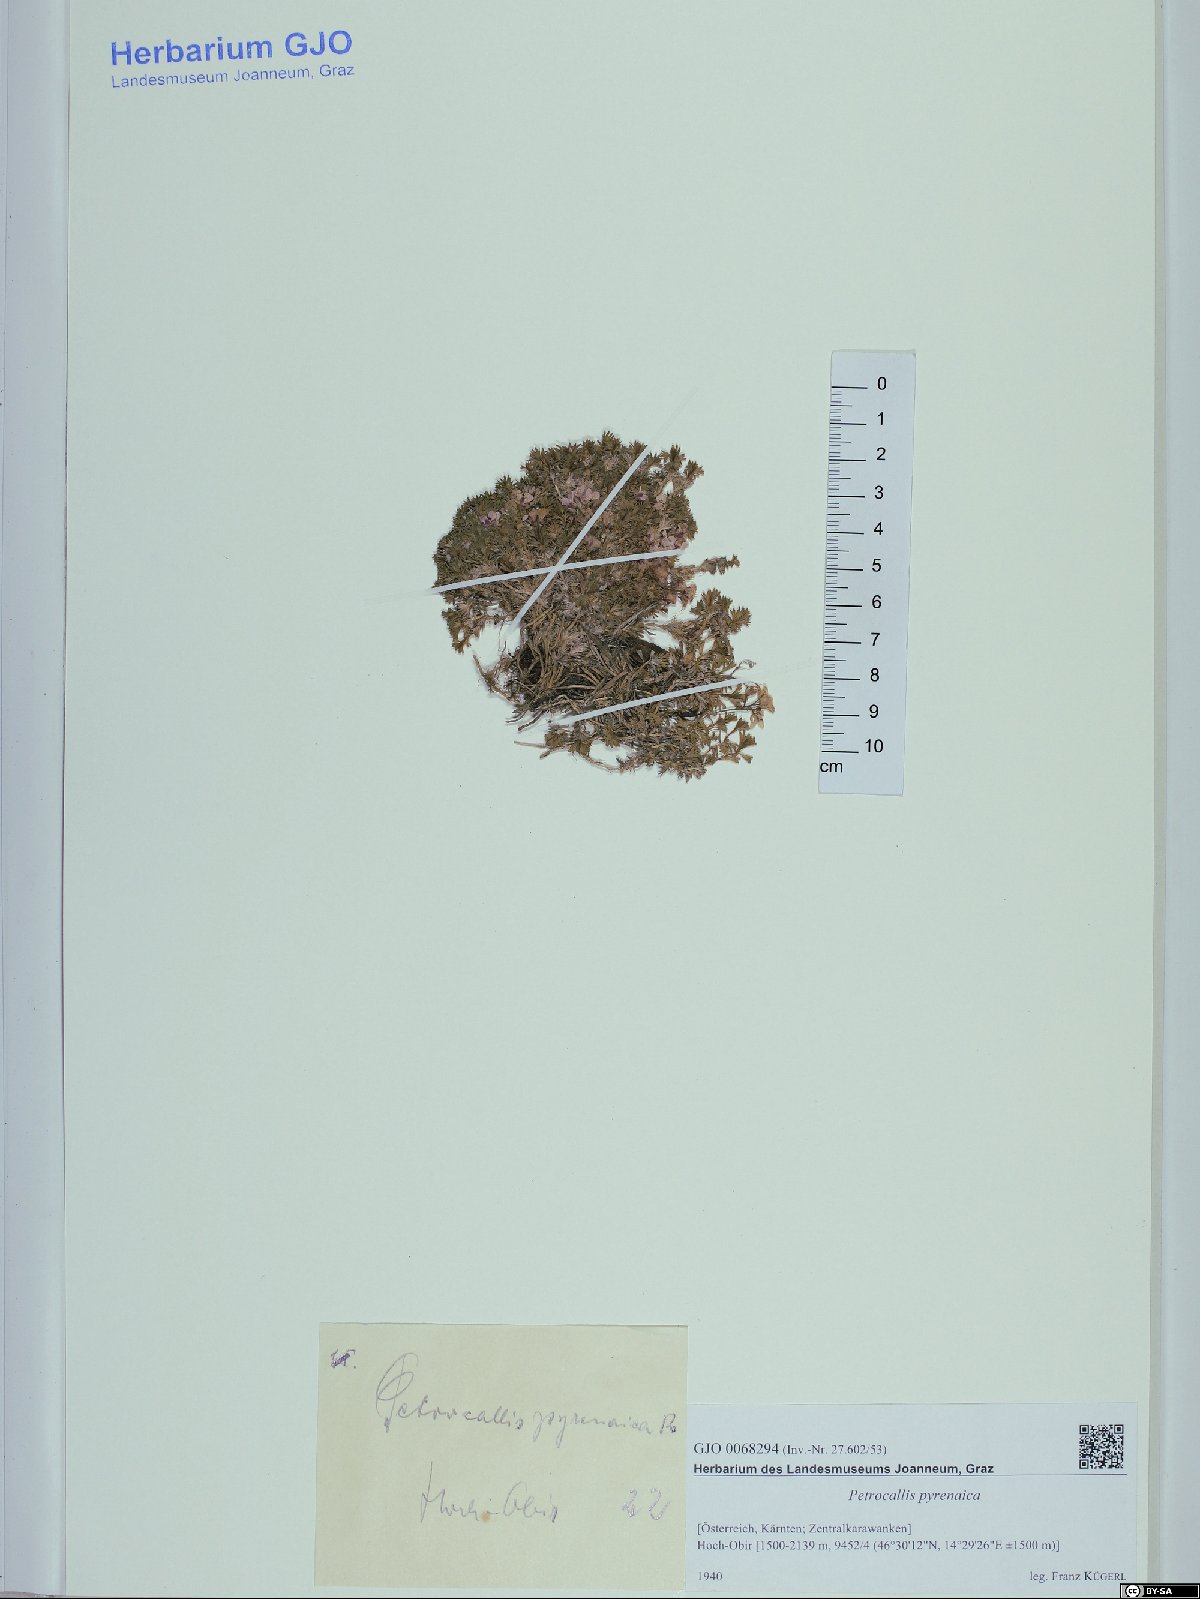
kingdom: Plantae
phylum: Tracheophyta
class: Magnoliopsida
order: Brassicales
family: Brassicaceae
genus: Petrocallis
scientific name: Petrocallis pyrenaica
